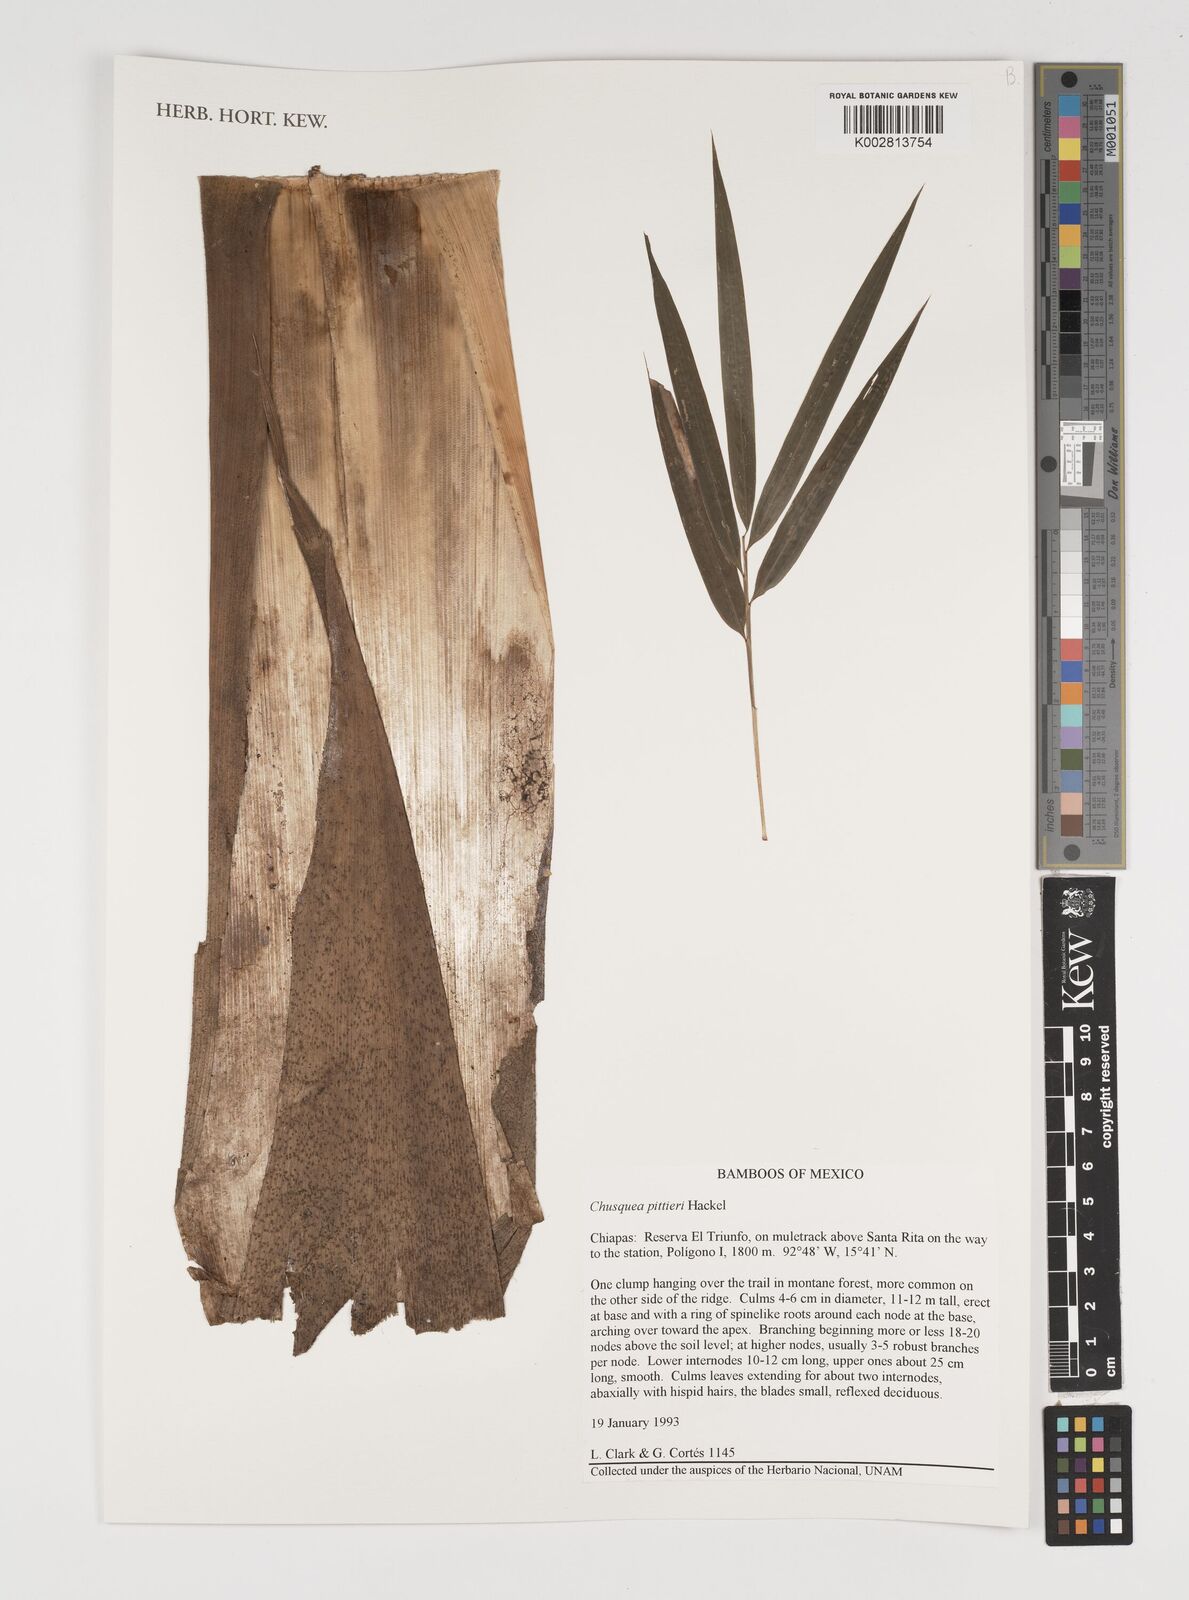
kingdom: Plantae
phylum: Tracheophyta
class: Liliopsida
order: Poales
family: Poaceae
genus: Chusquea
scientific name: Chusquea pittieri
